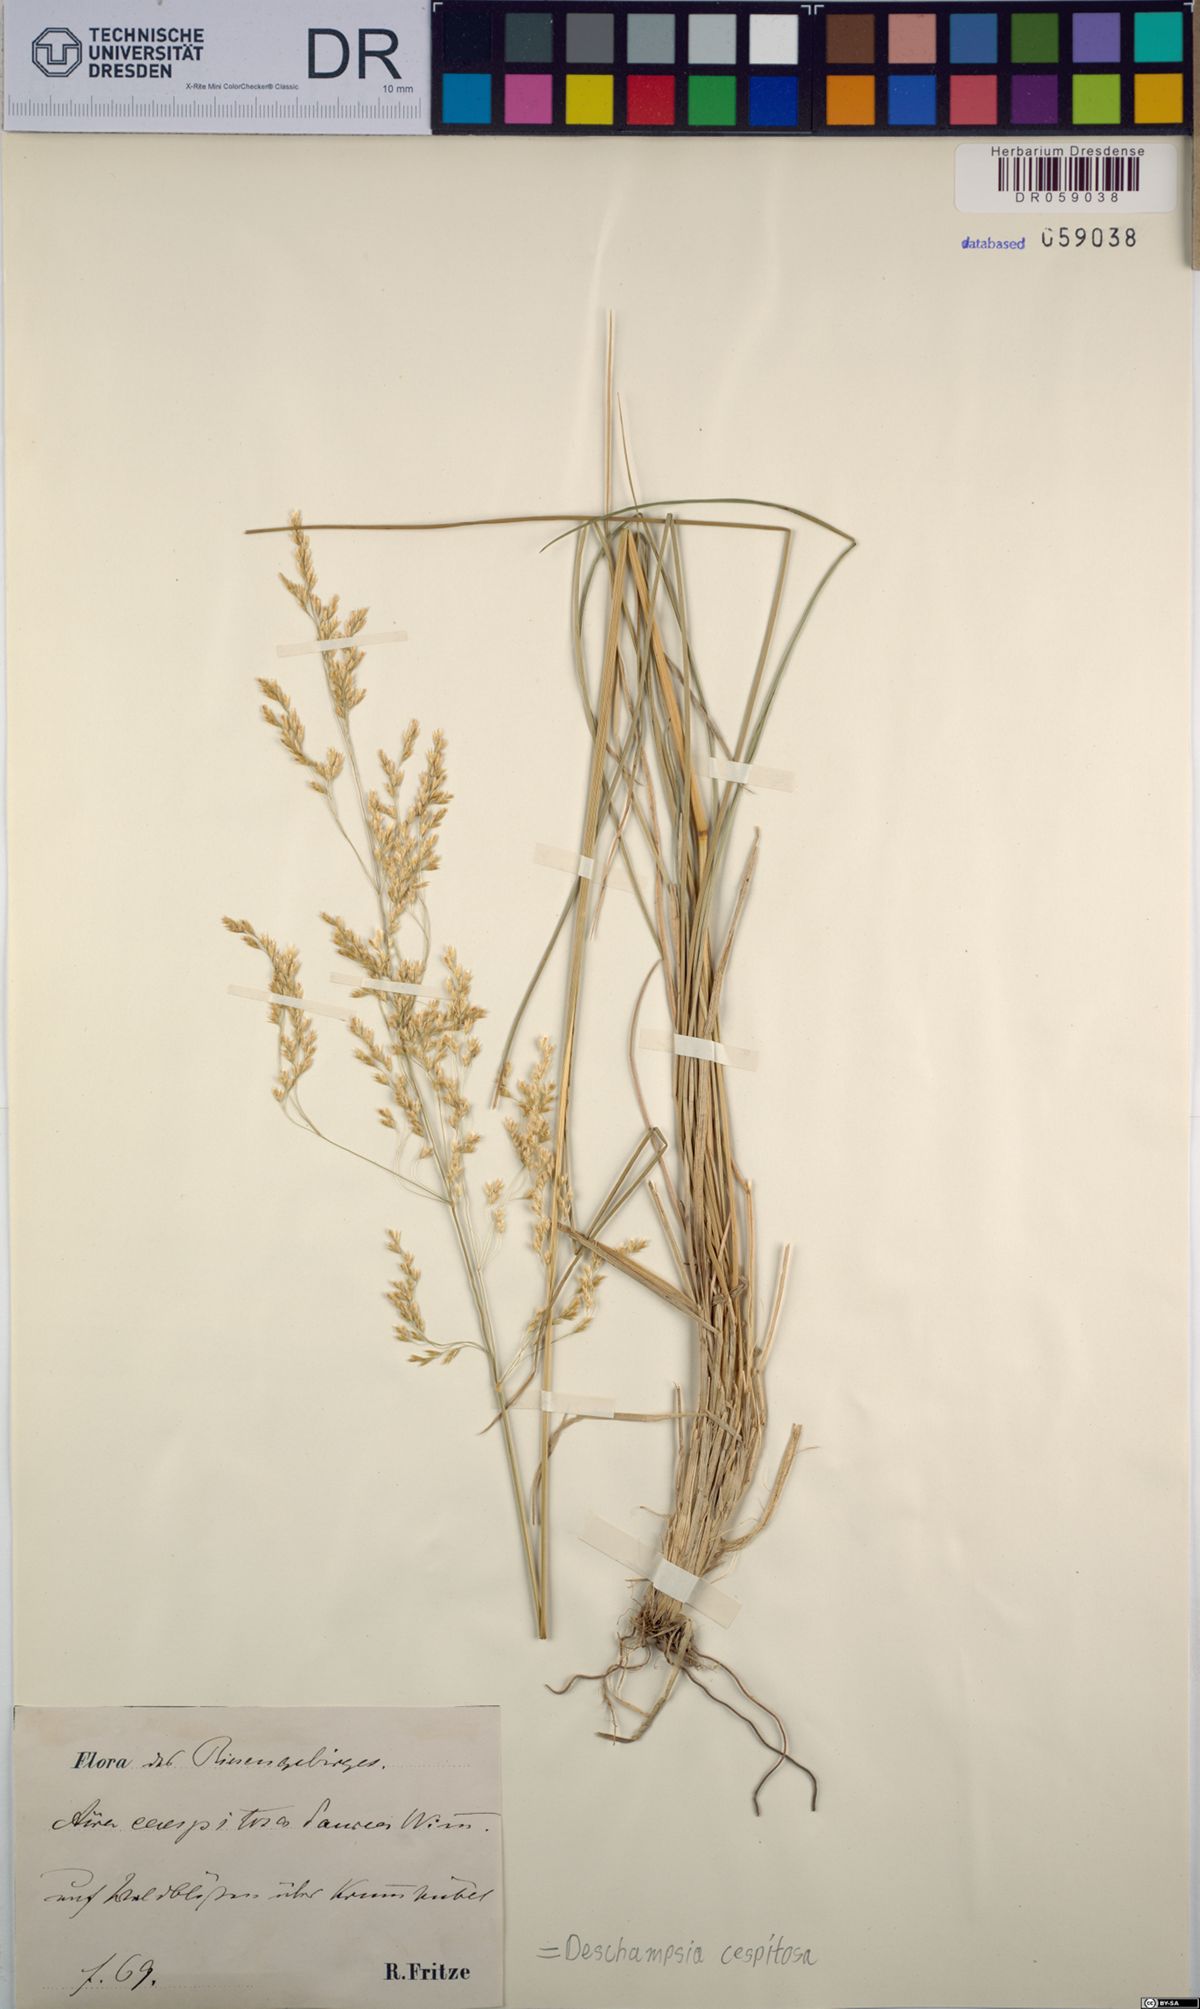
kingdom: Plantae
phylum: Tracheophyta
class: Liliopsida
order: Poales
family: Poaceae
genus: Deschampsia
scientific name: Deschampsia cespitosa
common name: Tufted hair-grass
